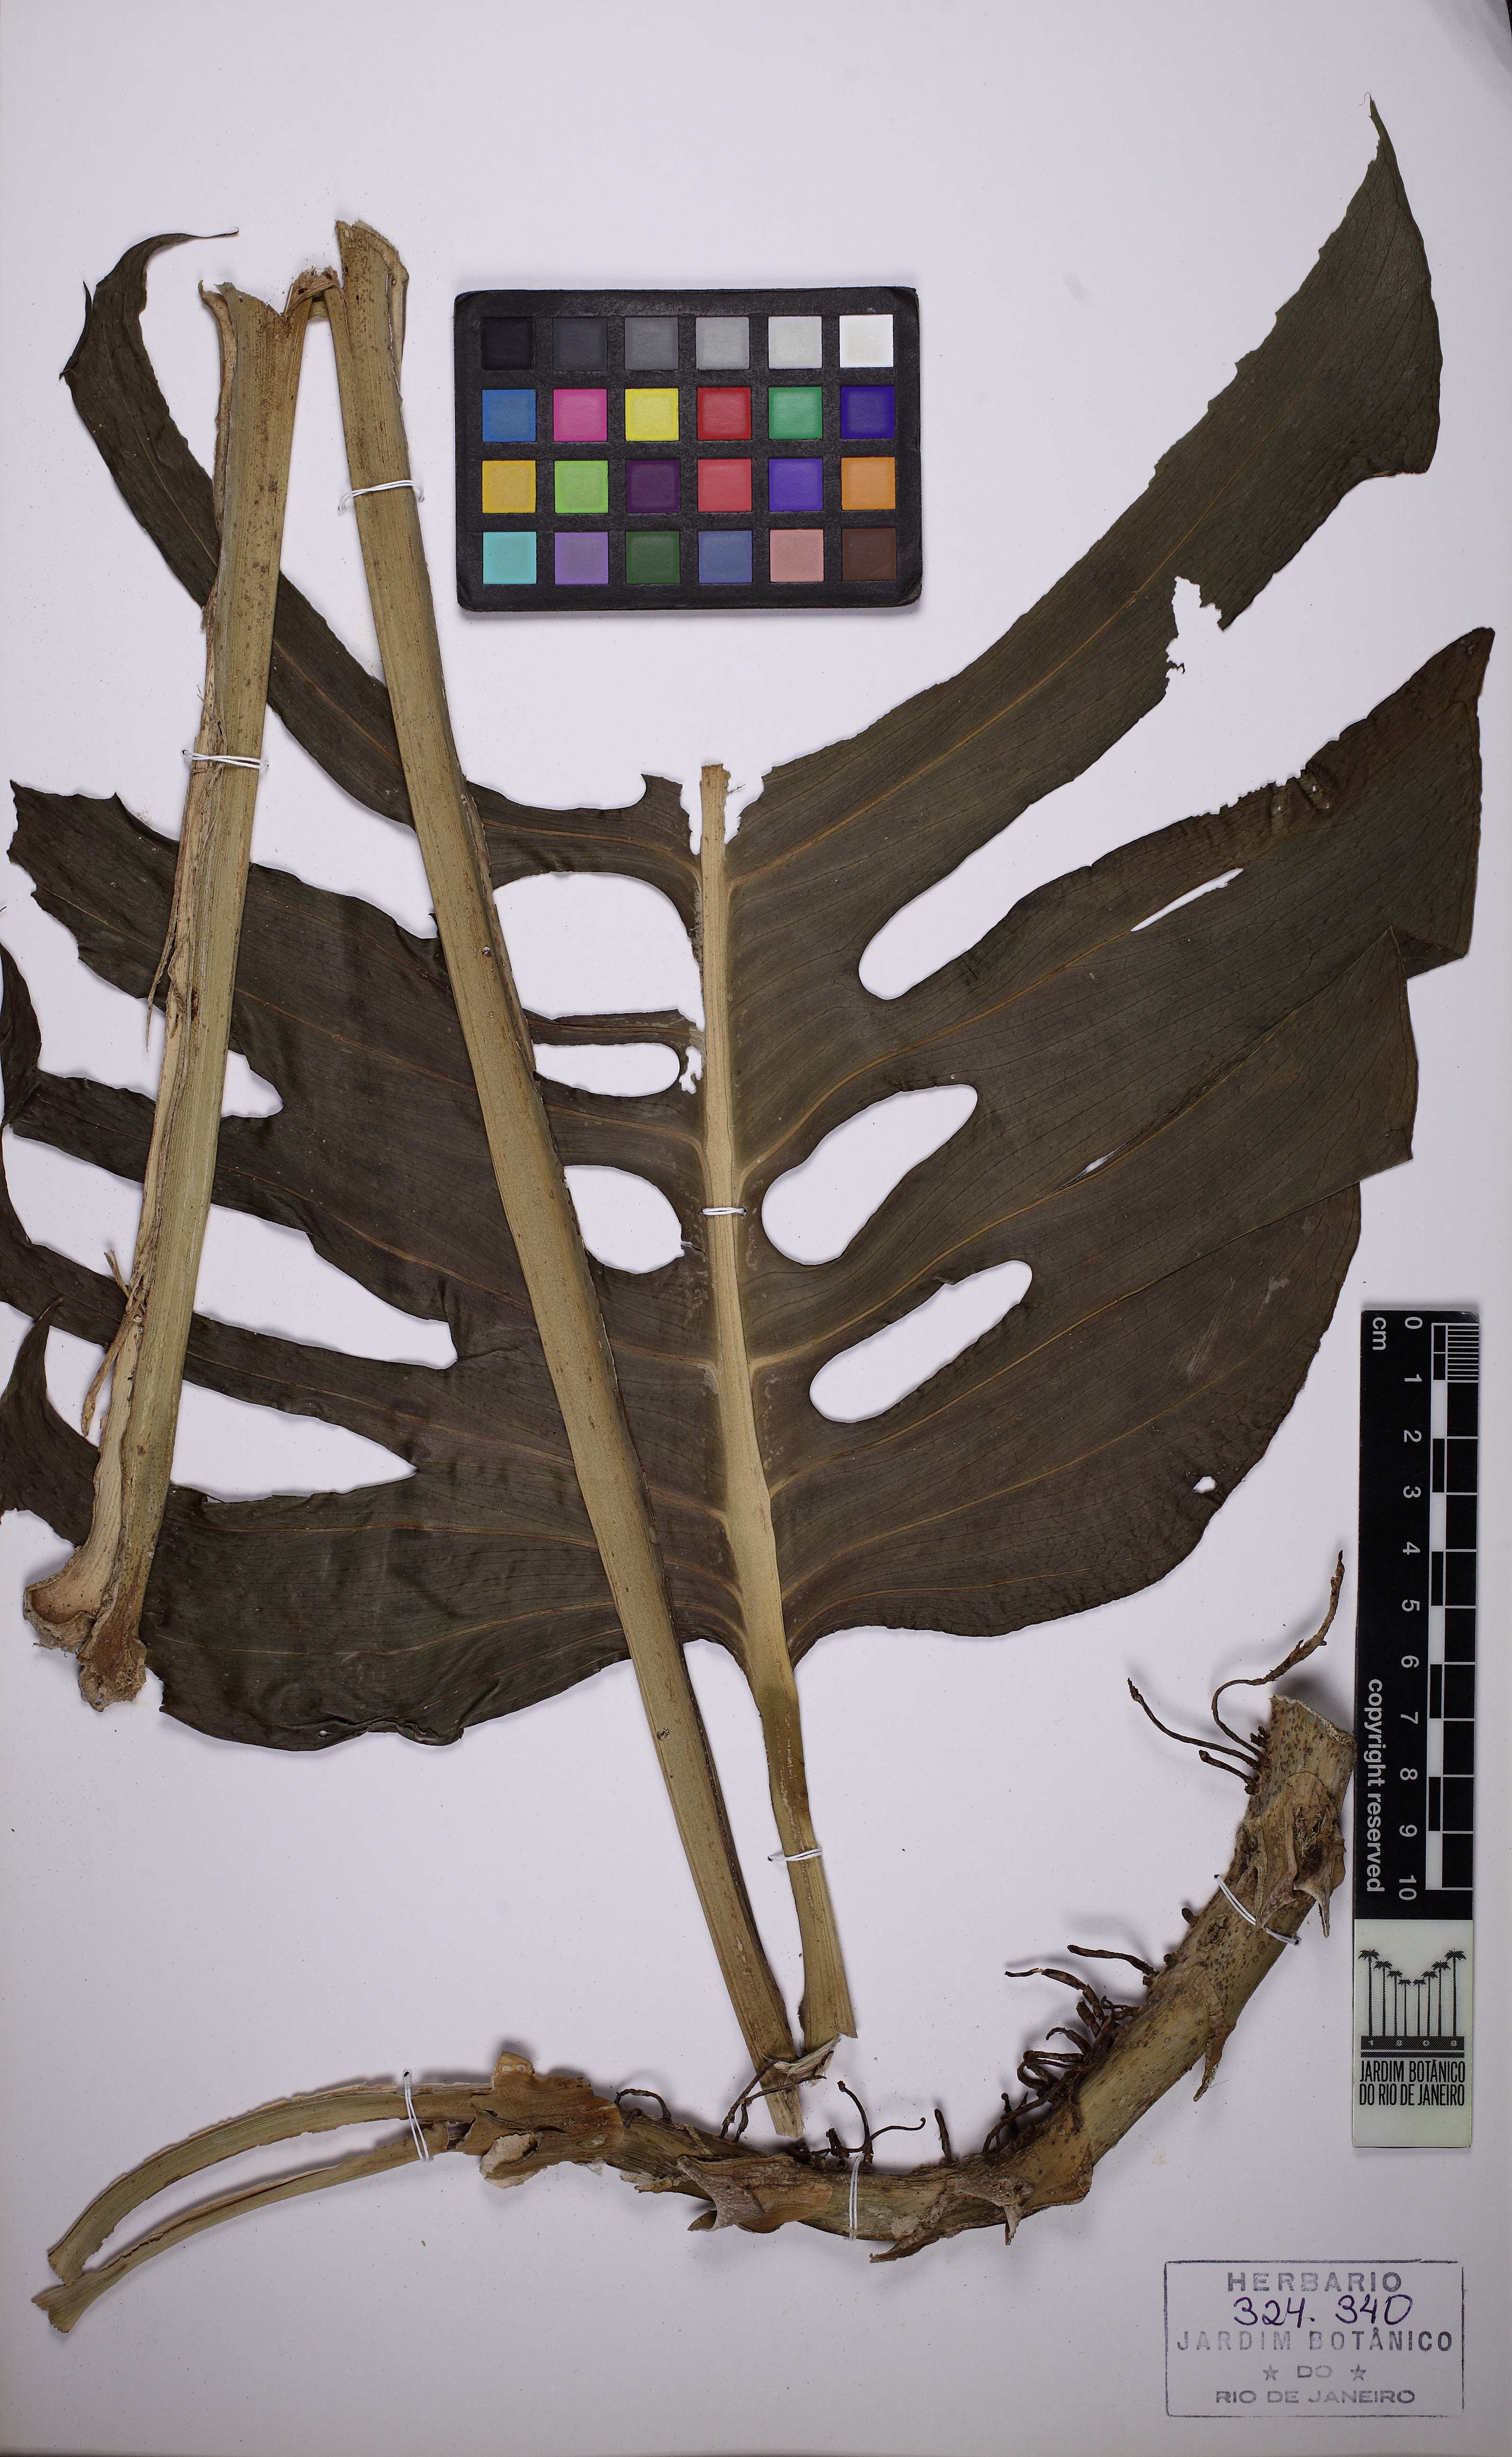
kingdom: Plantae
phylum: Tracheophyta
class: Liliopsida
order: Alismatales
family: Araceae
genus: Monstera
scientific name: Monstera adansonii
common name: Tarovine
